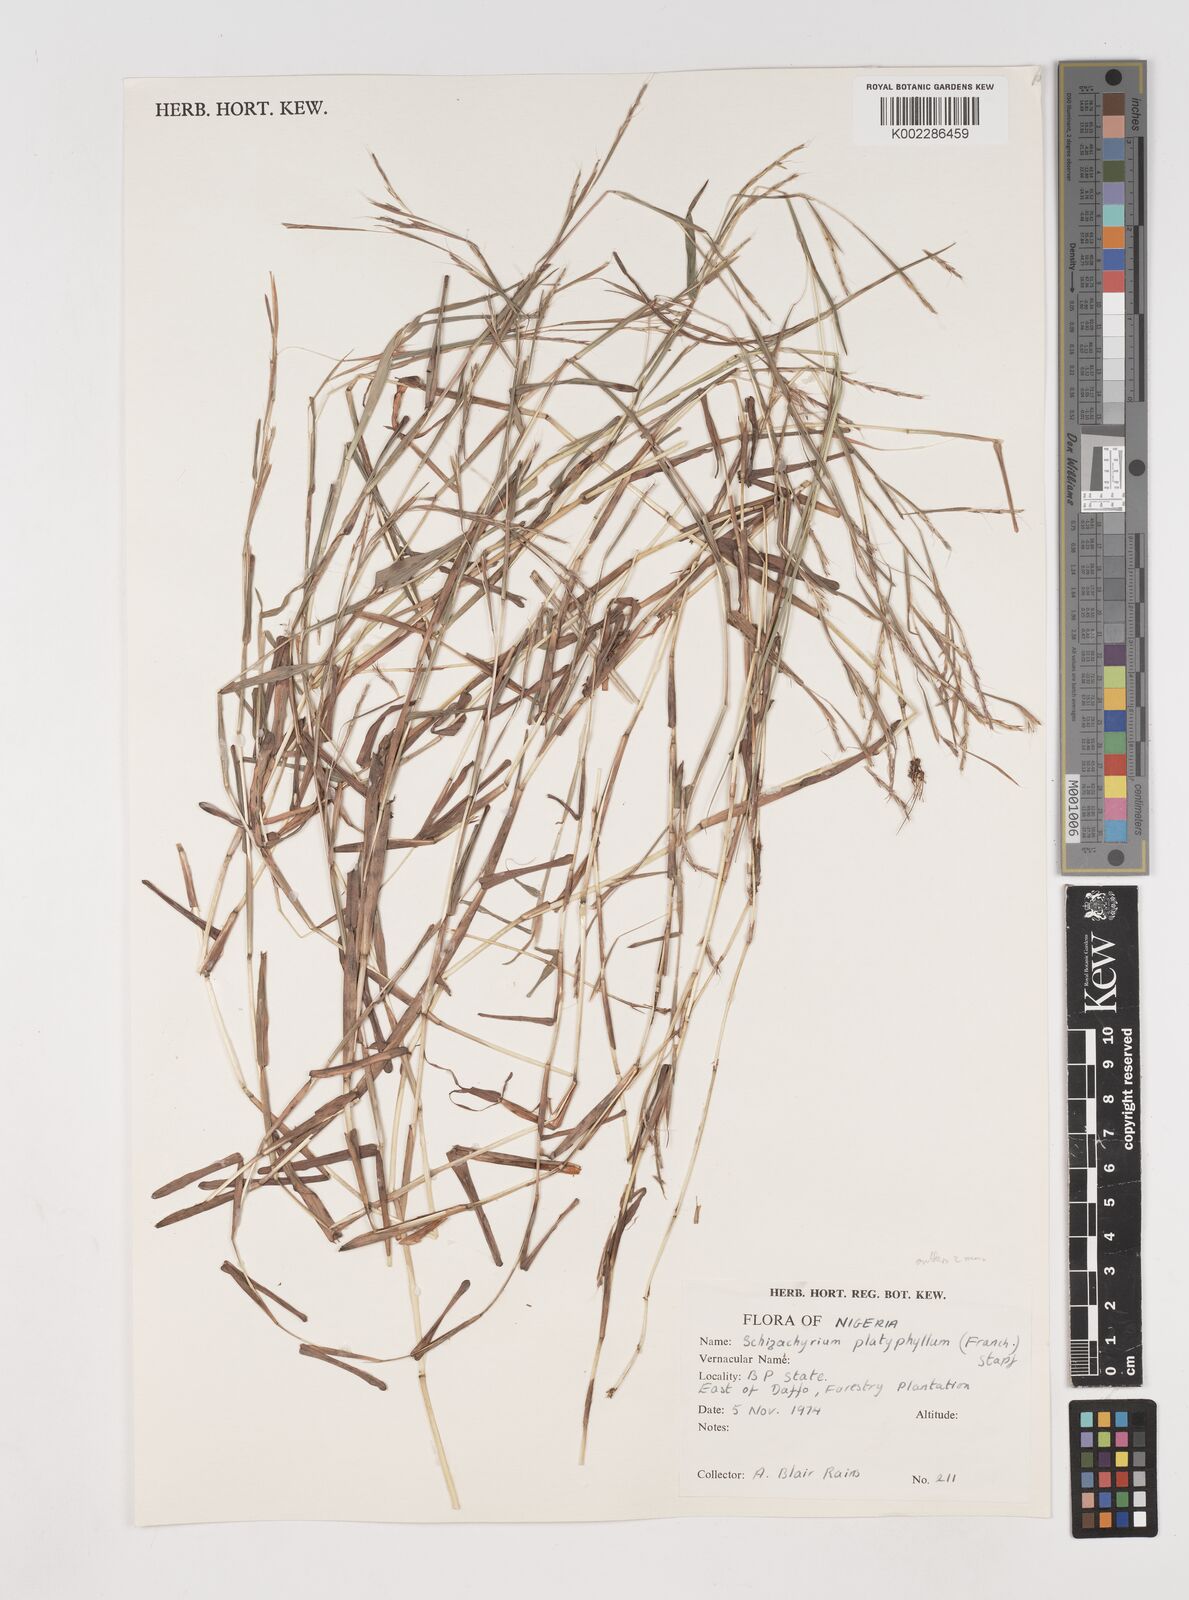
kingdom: Plantae
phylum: Tracheophyta
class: Liliopsida
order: Poales
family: Poaceae
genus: Schizachyrium
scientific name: Schizachyrium platyphyllum
